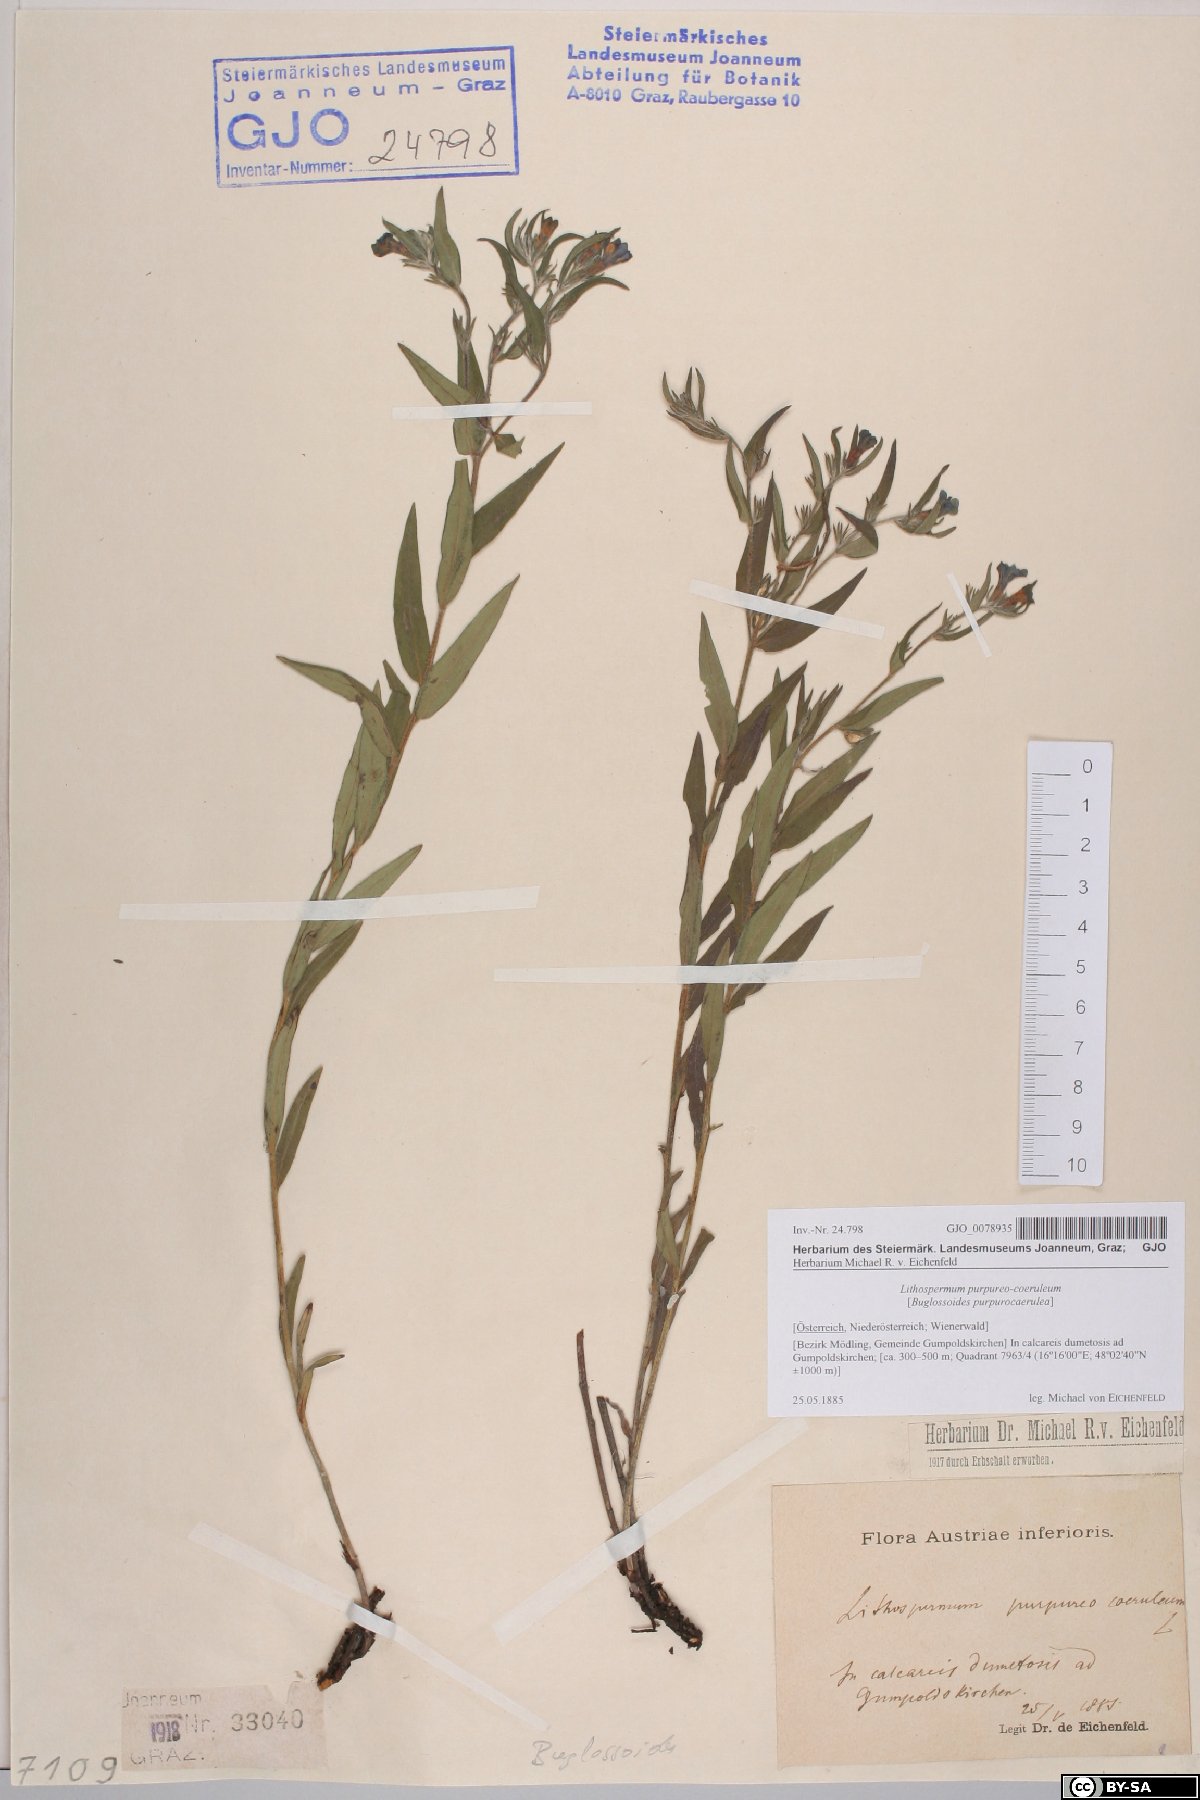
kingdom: Plantae
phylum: Tracheophyta
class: Magnoliopsida
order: Boraginales
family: Boraginaceae
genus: Aegonychon
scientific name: Aegonychon purpurocaeruleum
